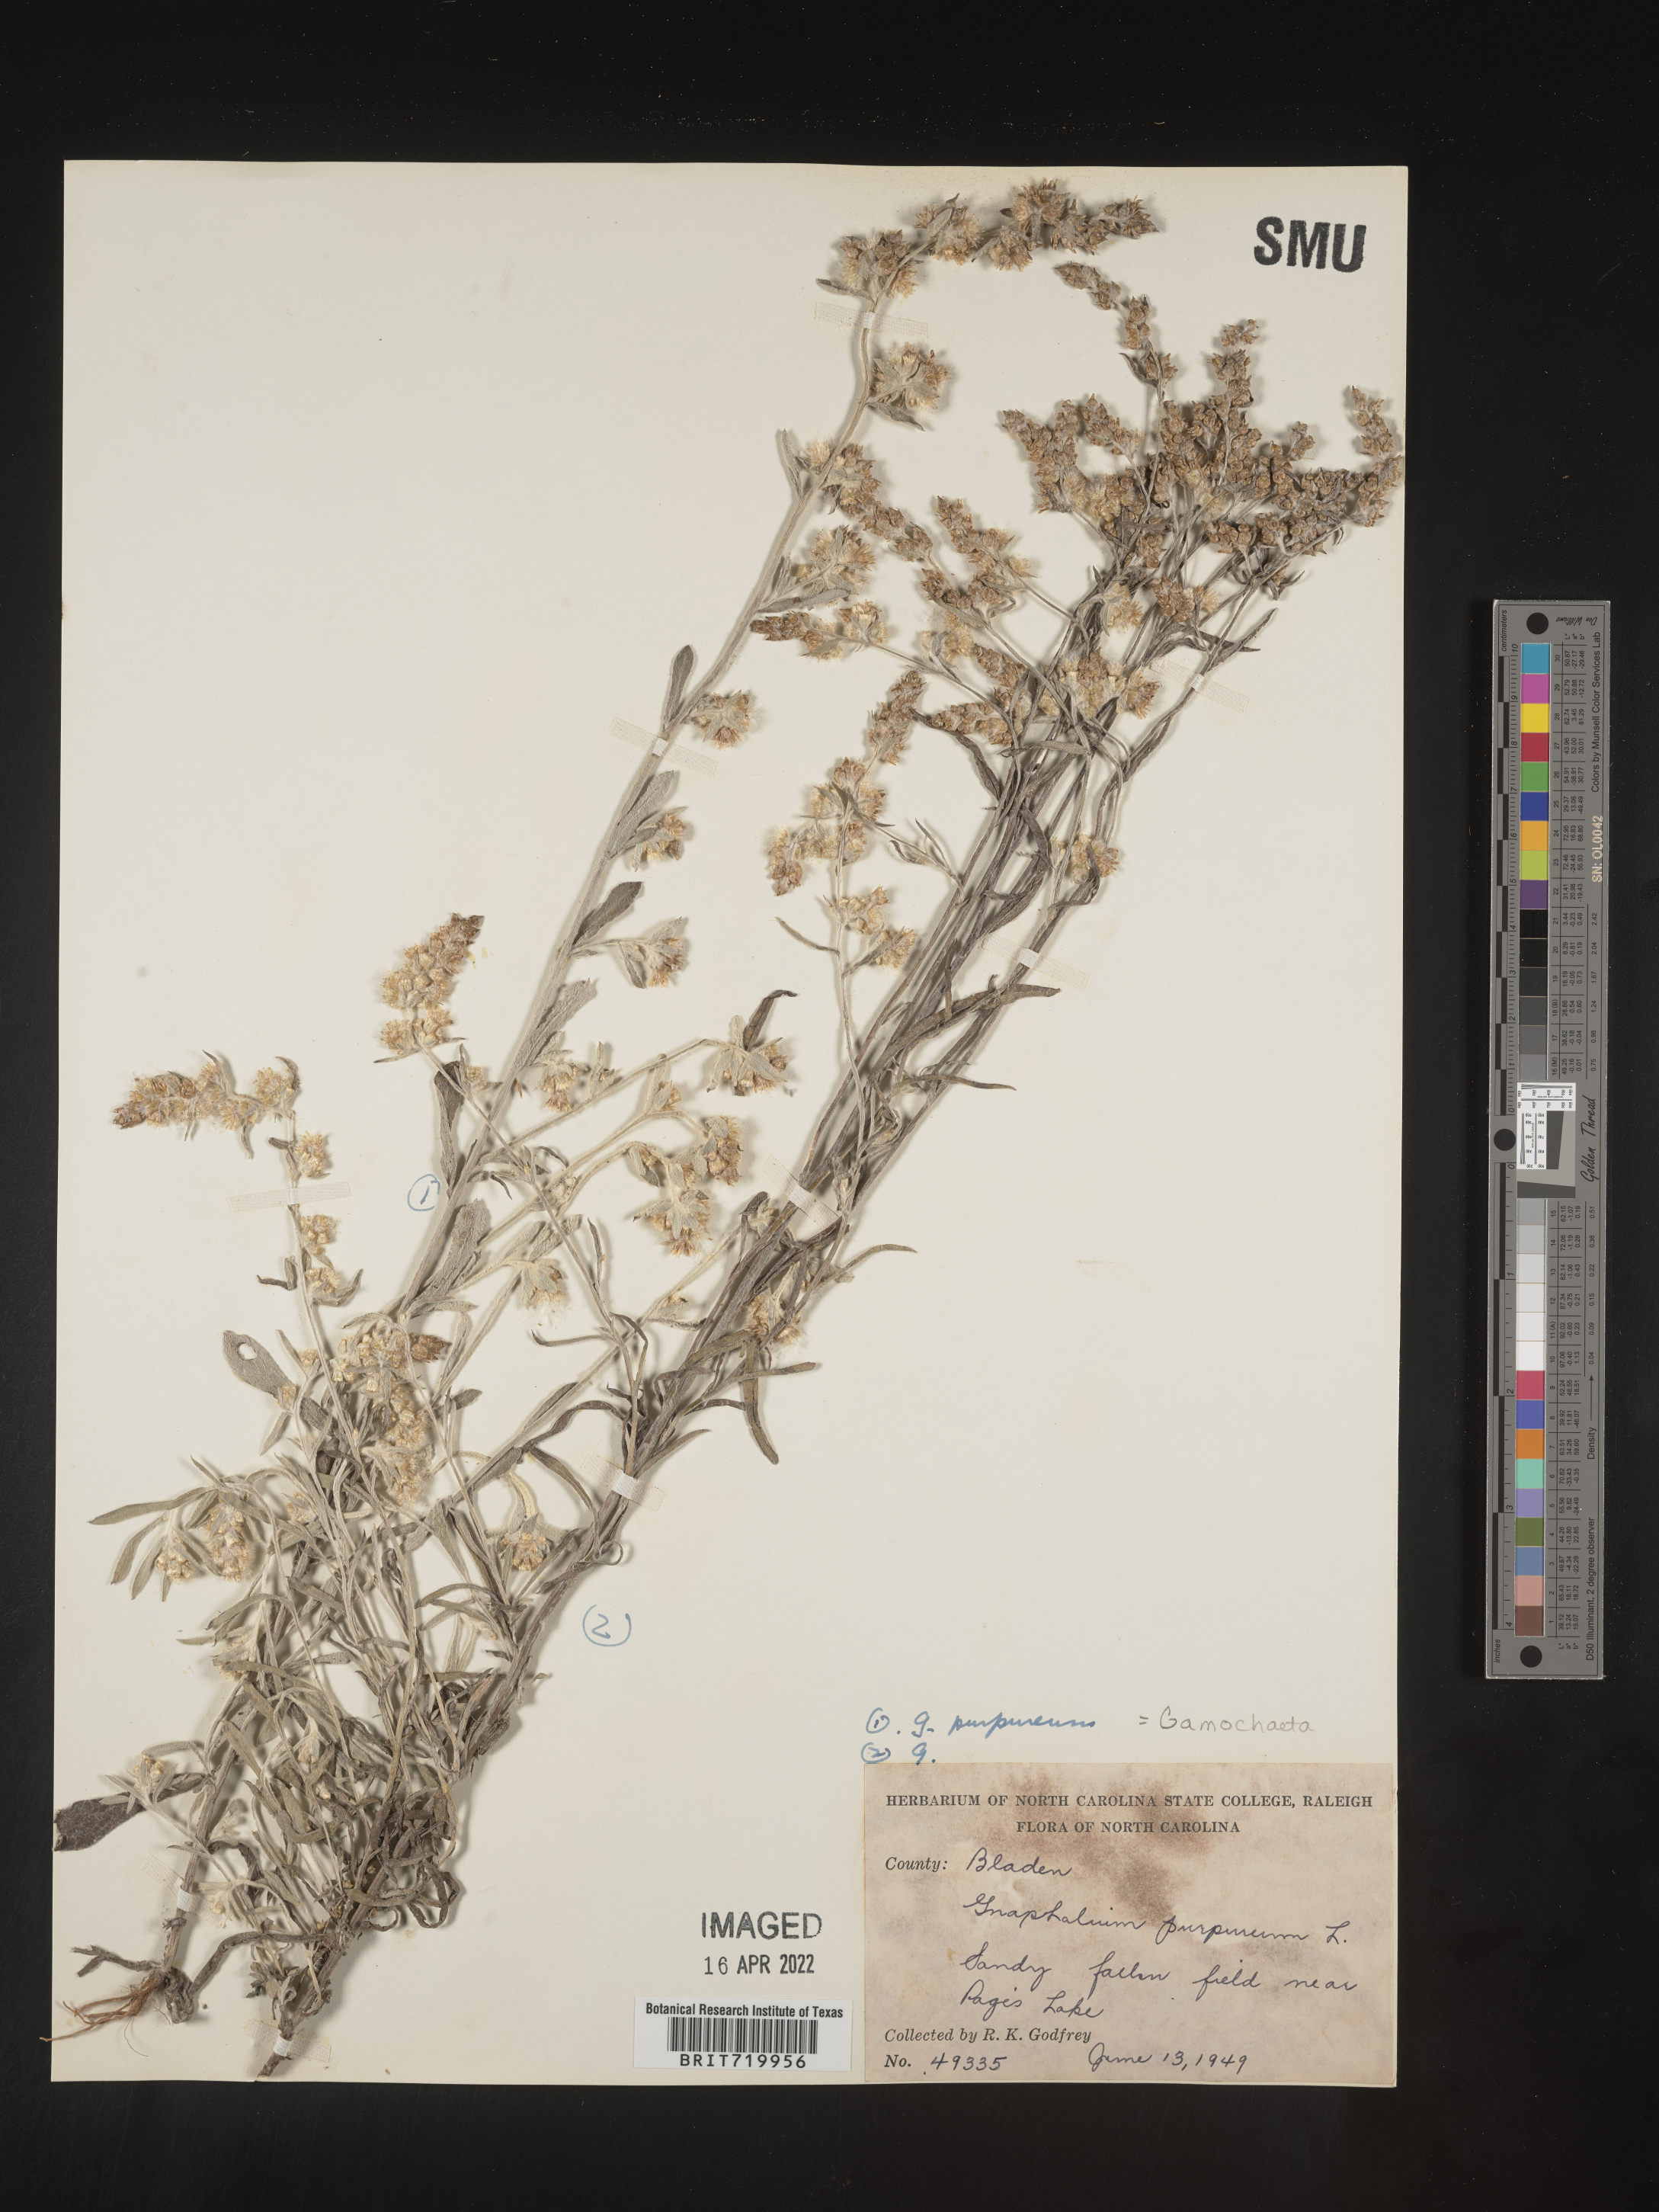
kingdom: Plantae
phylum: Tracheophyta
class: Magnoliopsida
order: Asterales
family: Asteraceae
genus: Gamochaeta
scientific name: Gamochaeta purpurea
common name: Purple cudweed
